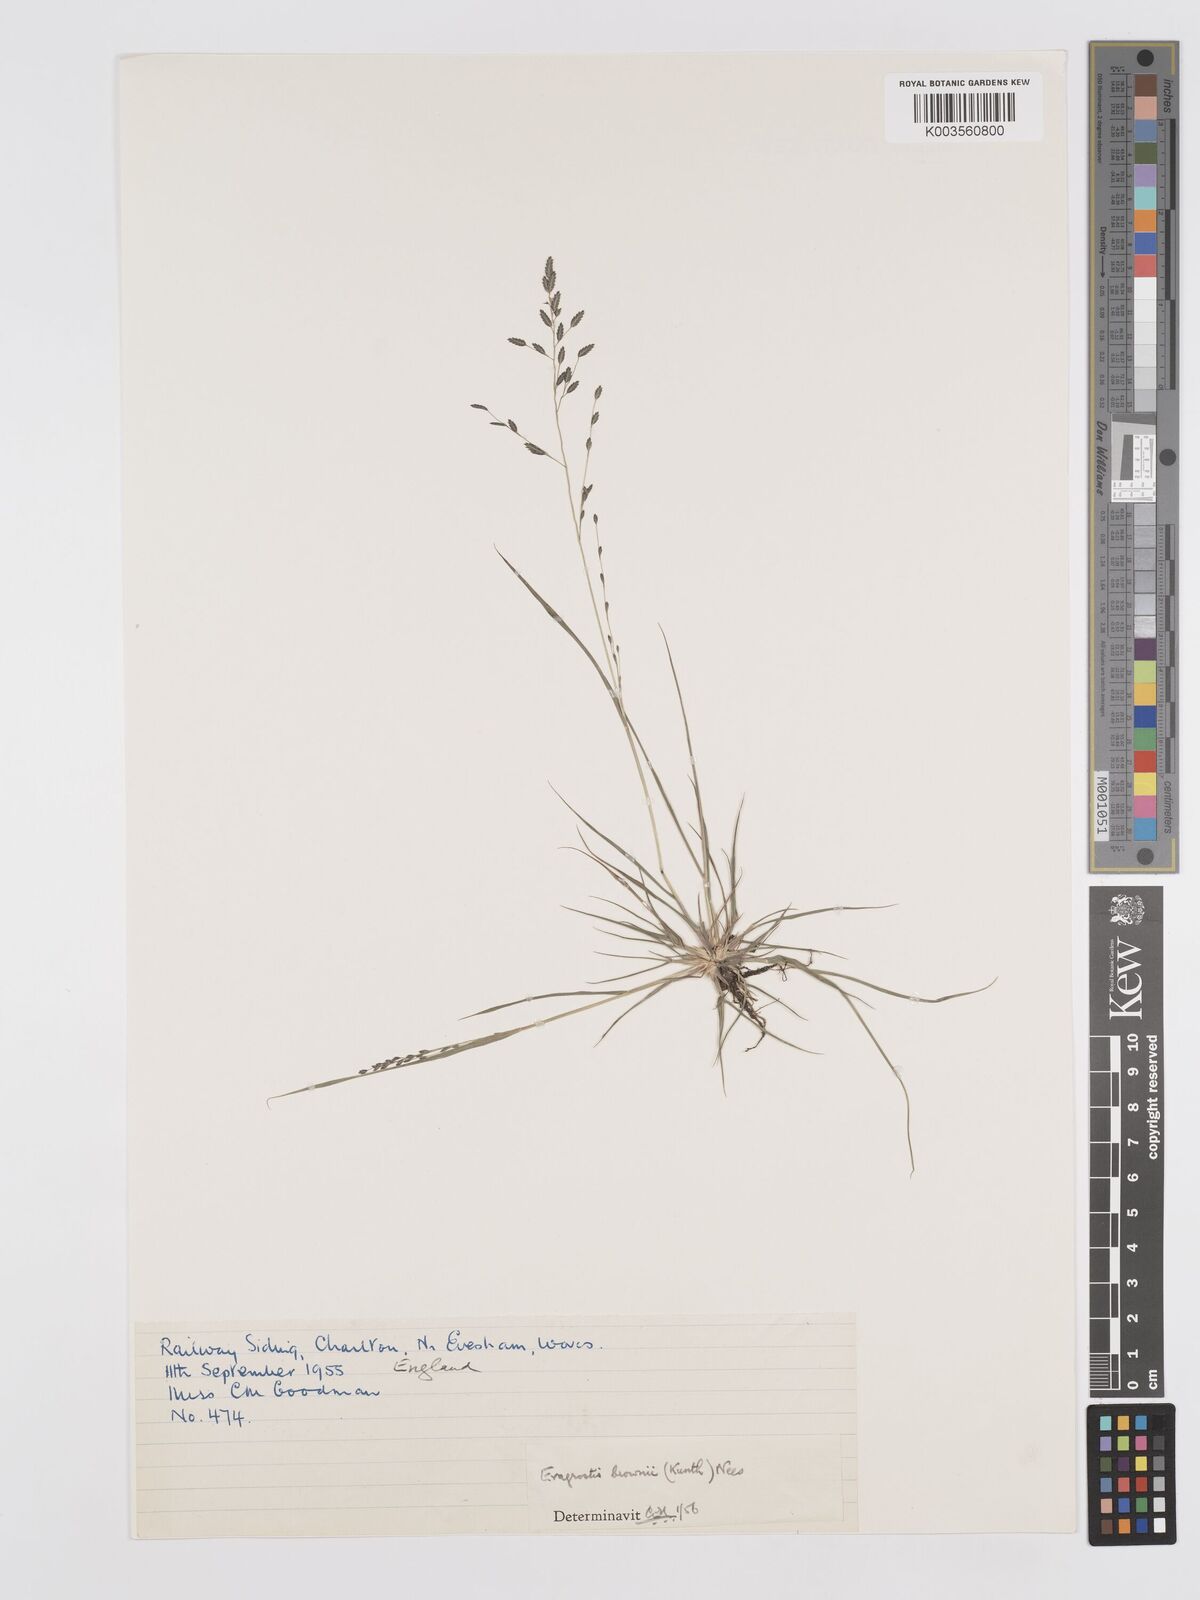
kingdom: Plantae
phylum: Tracheophyta
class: Liliopsida
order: Poales
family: Poaceae
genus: Eragrostis
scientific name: Eragrostis brownii
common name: Lovegrass
